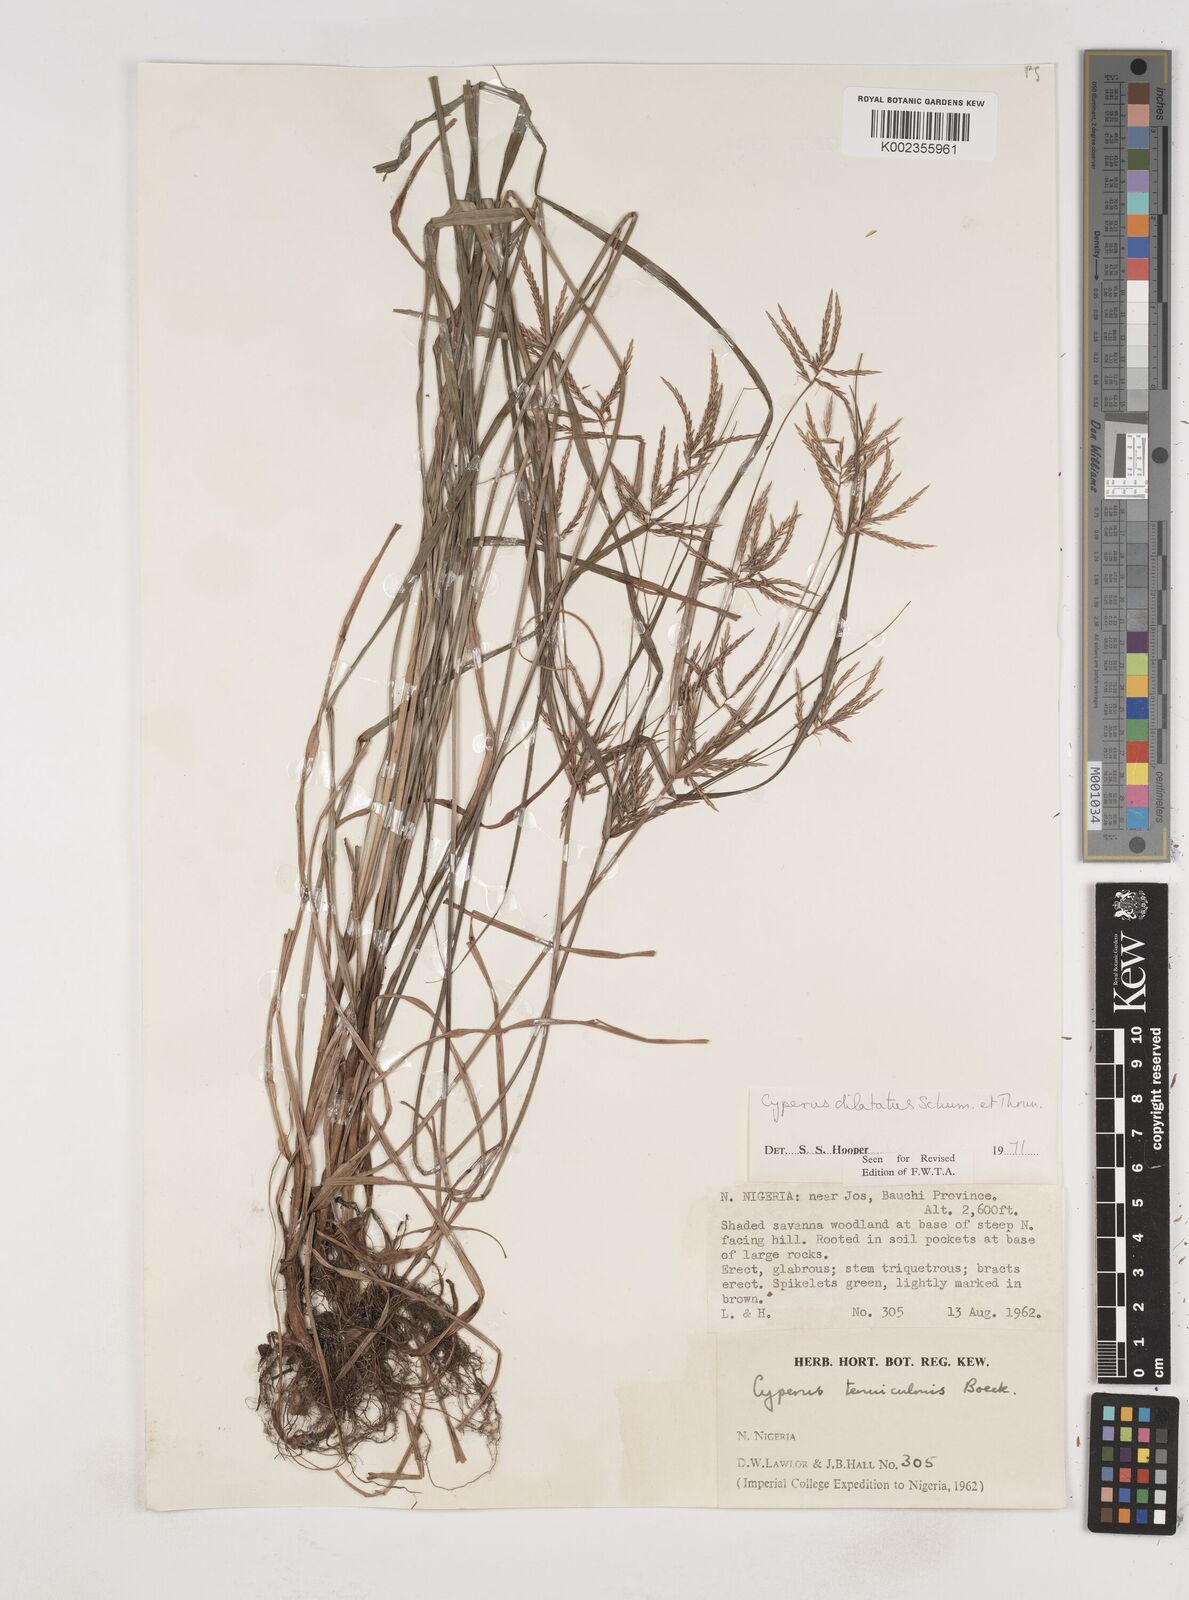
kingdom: Plantae
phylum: Tracheophyta
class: Liliopsida
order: Poales
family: Cyperaceae
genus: Cyperus
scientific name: Cyperus dilatatus
